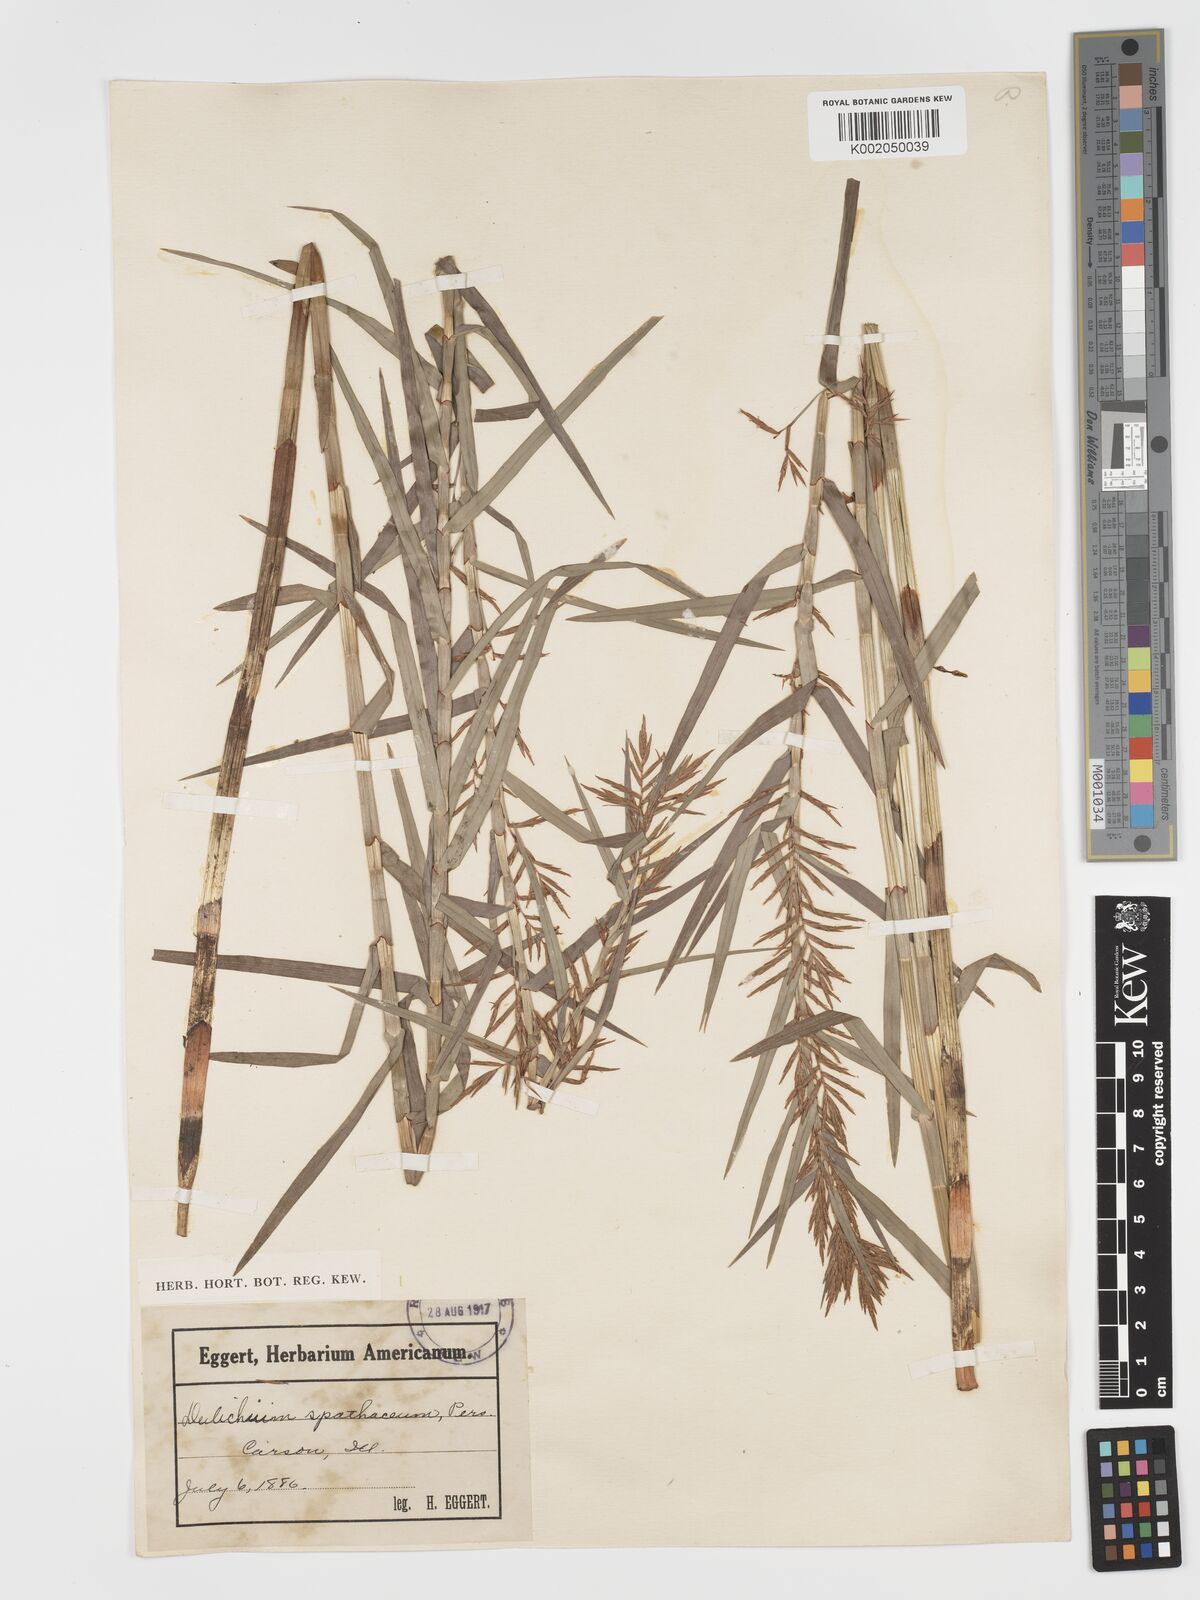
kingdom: Plantae
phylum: Tracheophyta
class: Liliopsida
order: Poales
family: Cyperaceae
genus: Dulichium
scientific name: Dulichium arundinaceum
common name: Three-way sedge
